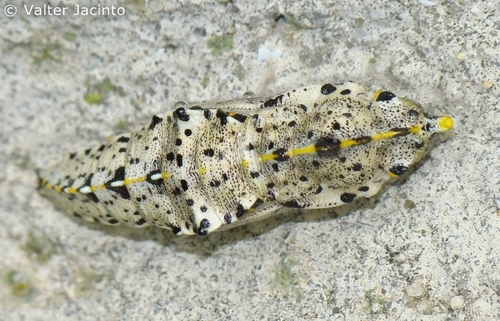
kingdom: Animalia
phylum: Arthropoda
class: Insecta
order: Lepidoptera
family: Pieridae
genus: Pieris
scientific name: Pieris brassicae
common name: Large white
